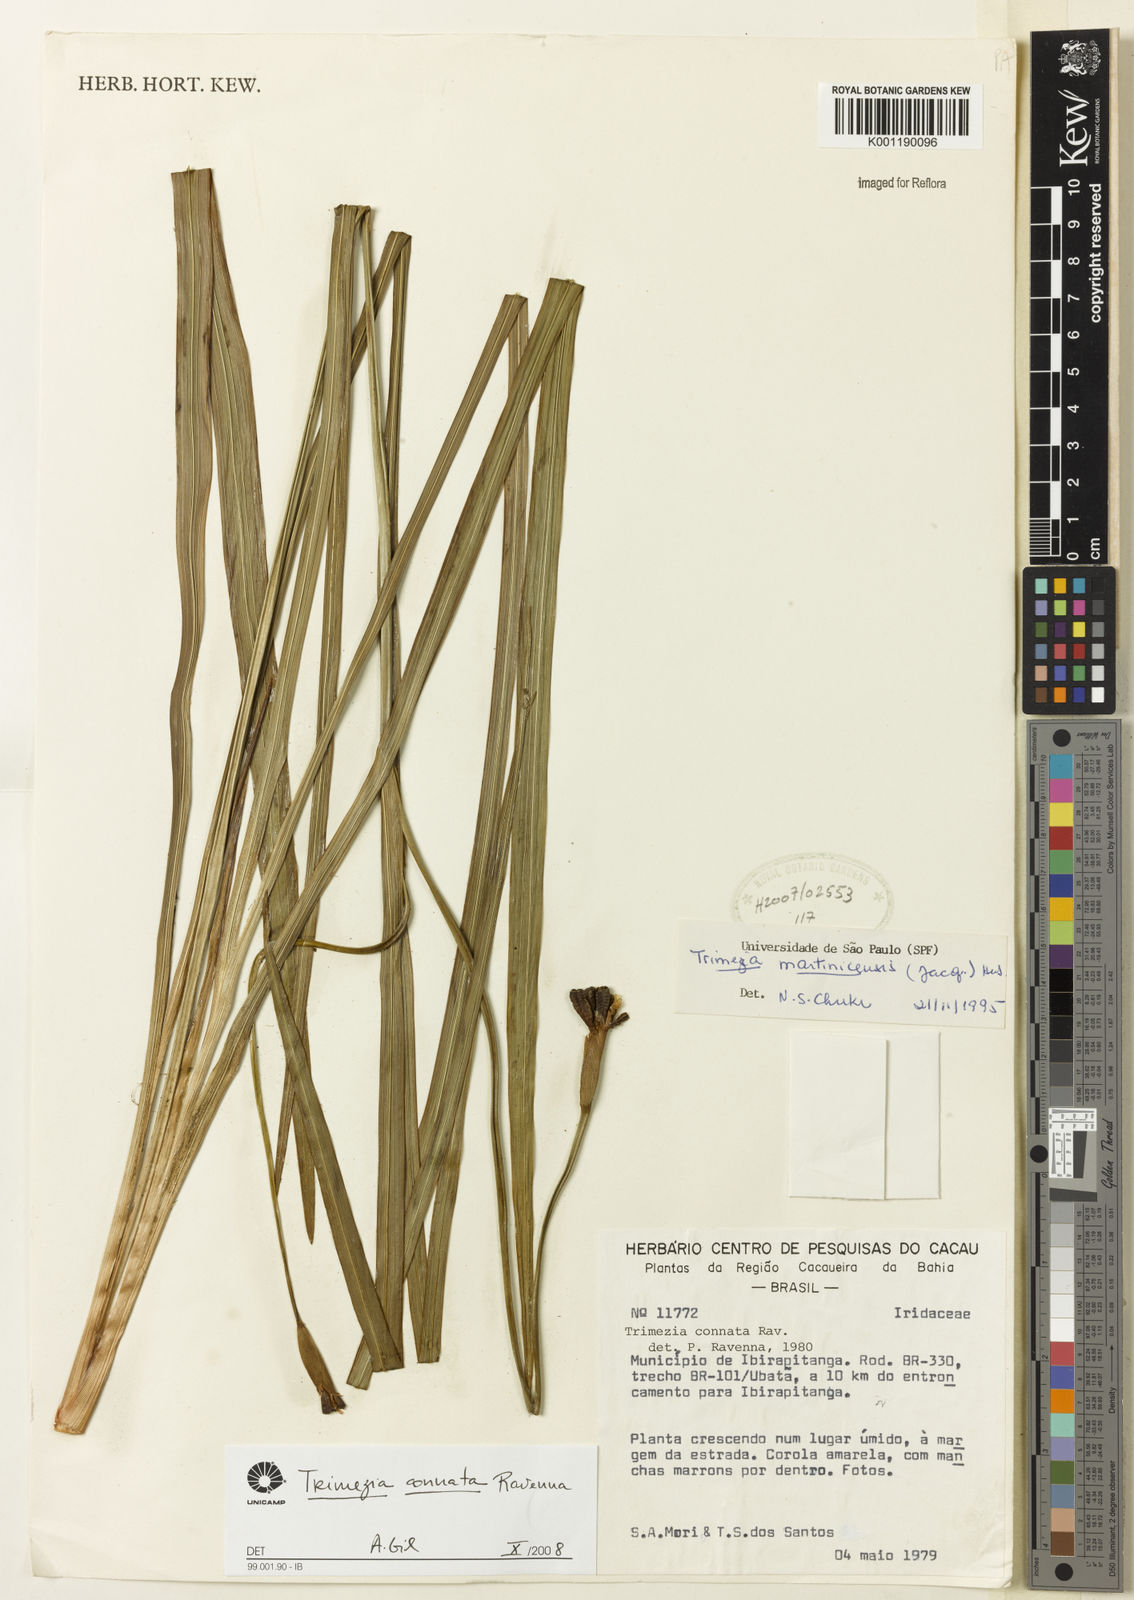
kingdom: Plantae
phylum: Tracheophyta
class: Liliopsida
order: Asparagales
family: Iridaceae
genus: Trimezia
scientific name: Trimezia martinicensis
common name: Martinique trimezia
